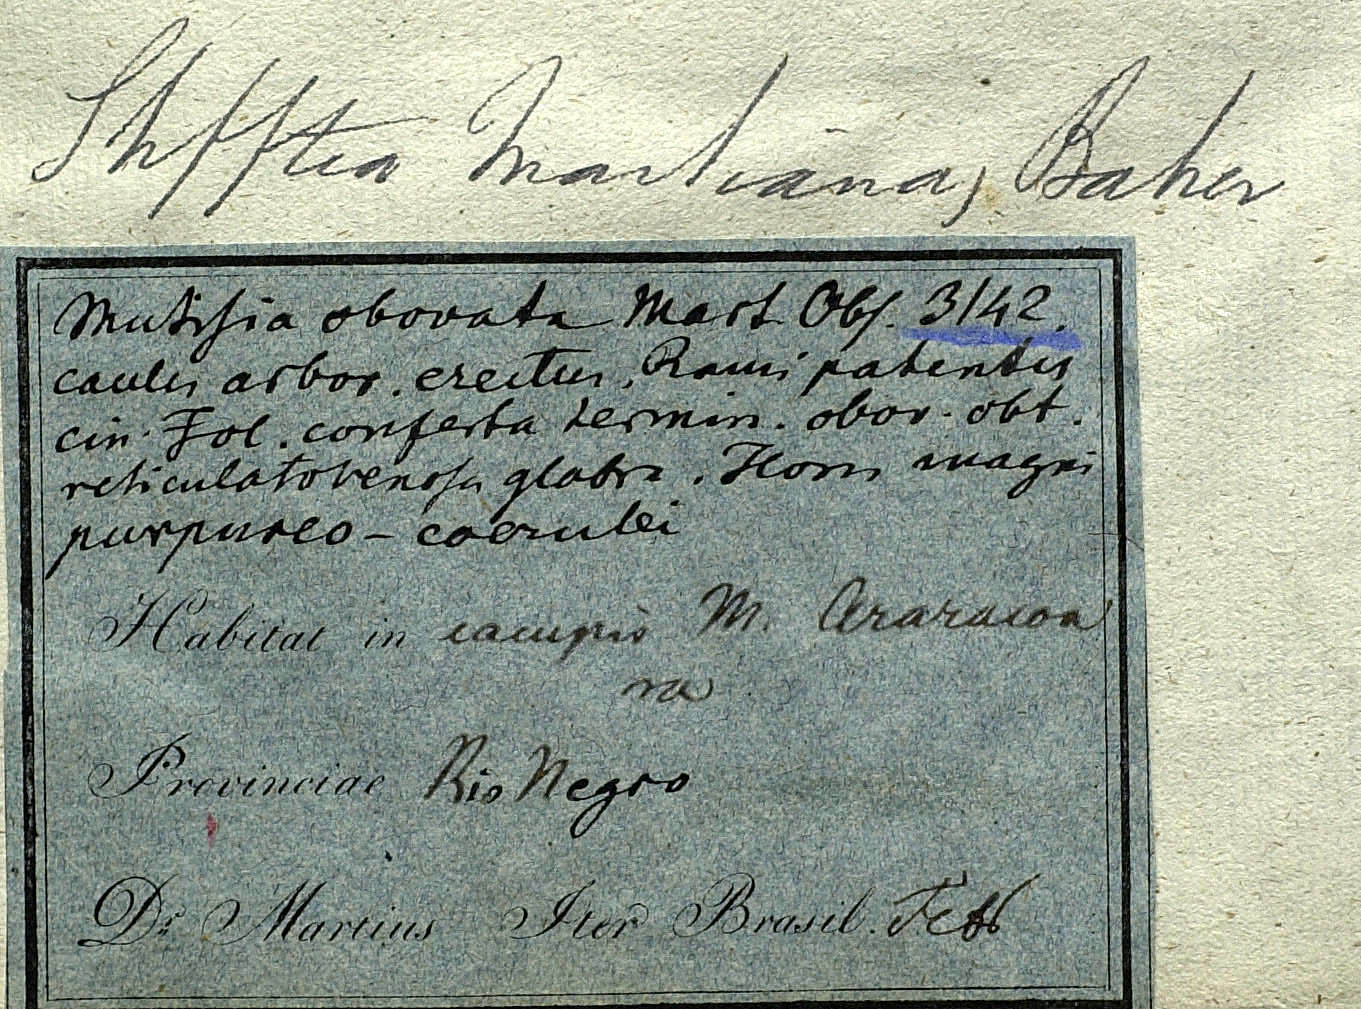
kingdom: Plantae
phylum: Tracheophyta
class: Magnoliopsida
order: Asterales
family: Asteraceae
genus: Gongylolepis
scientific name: Gongylolepis martiana
